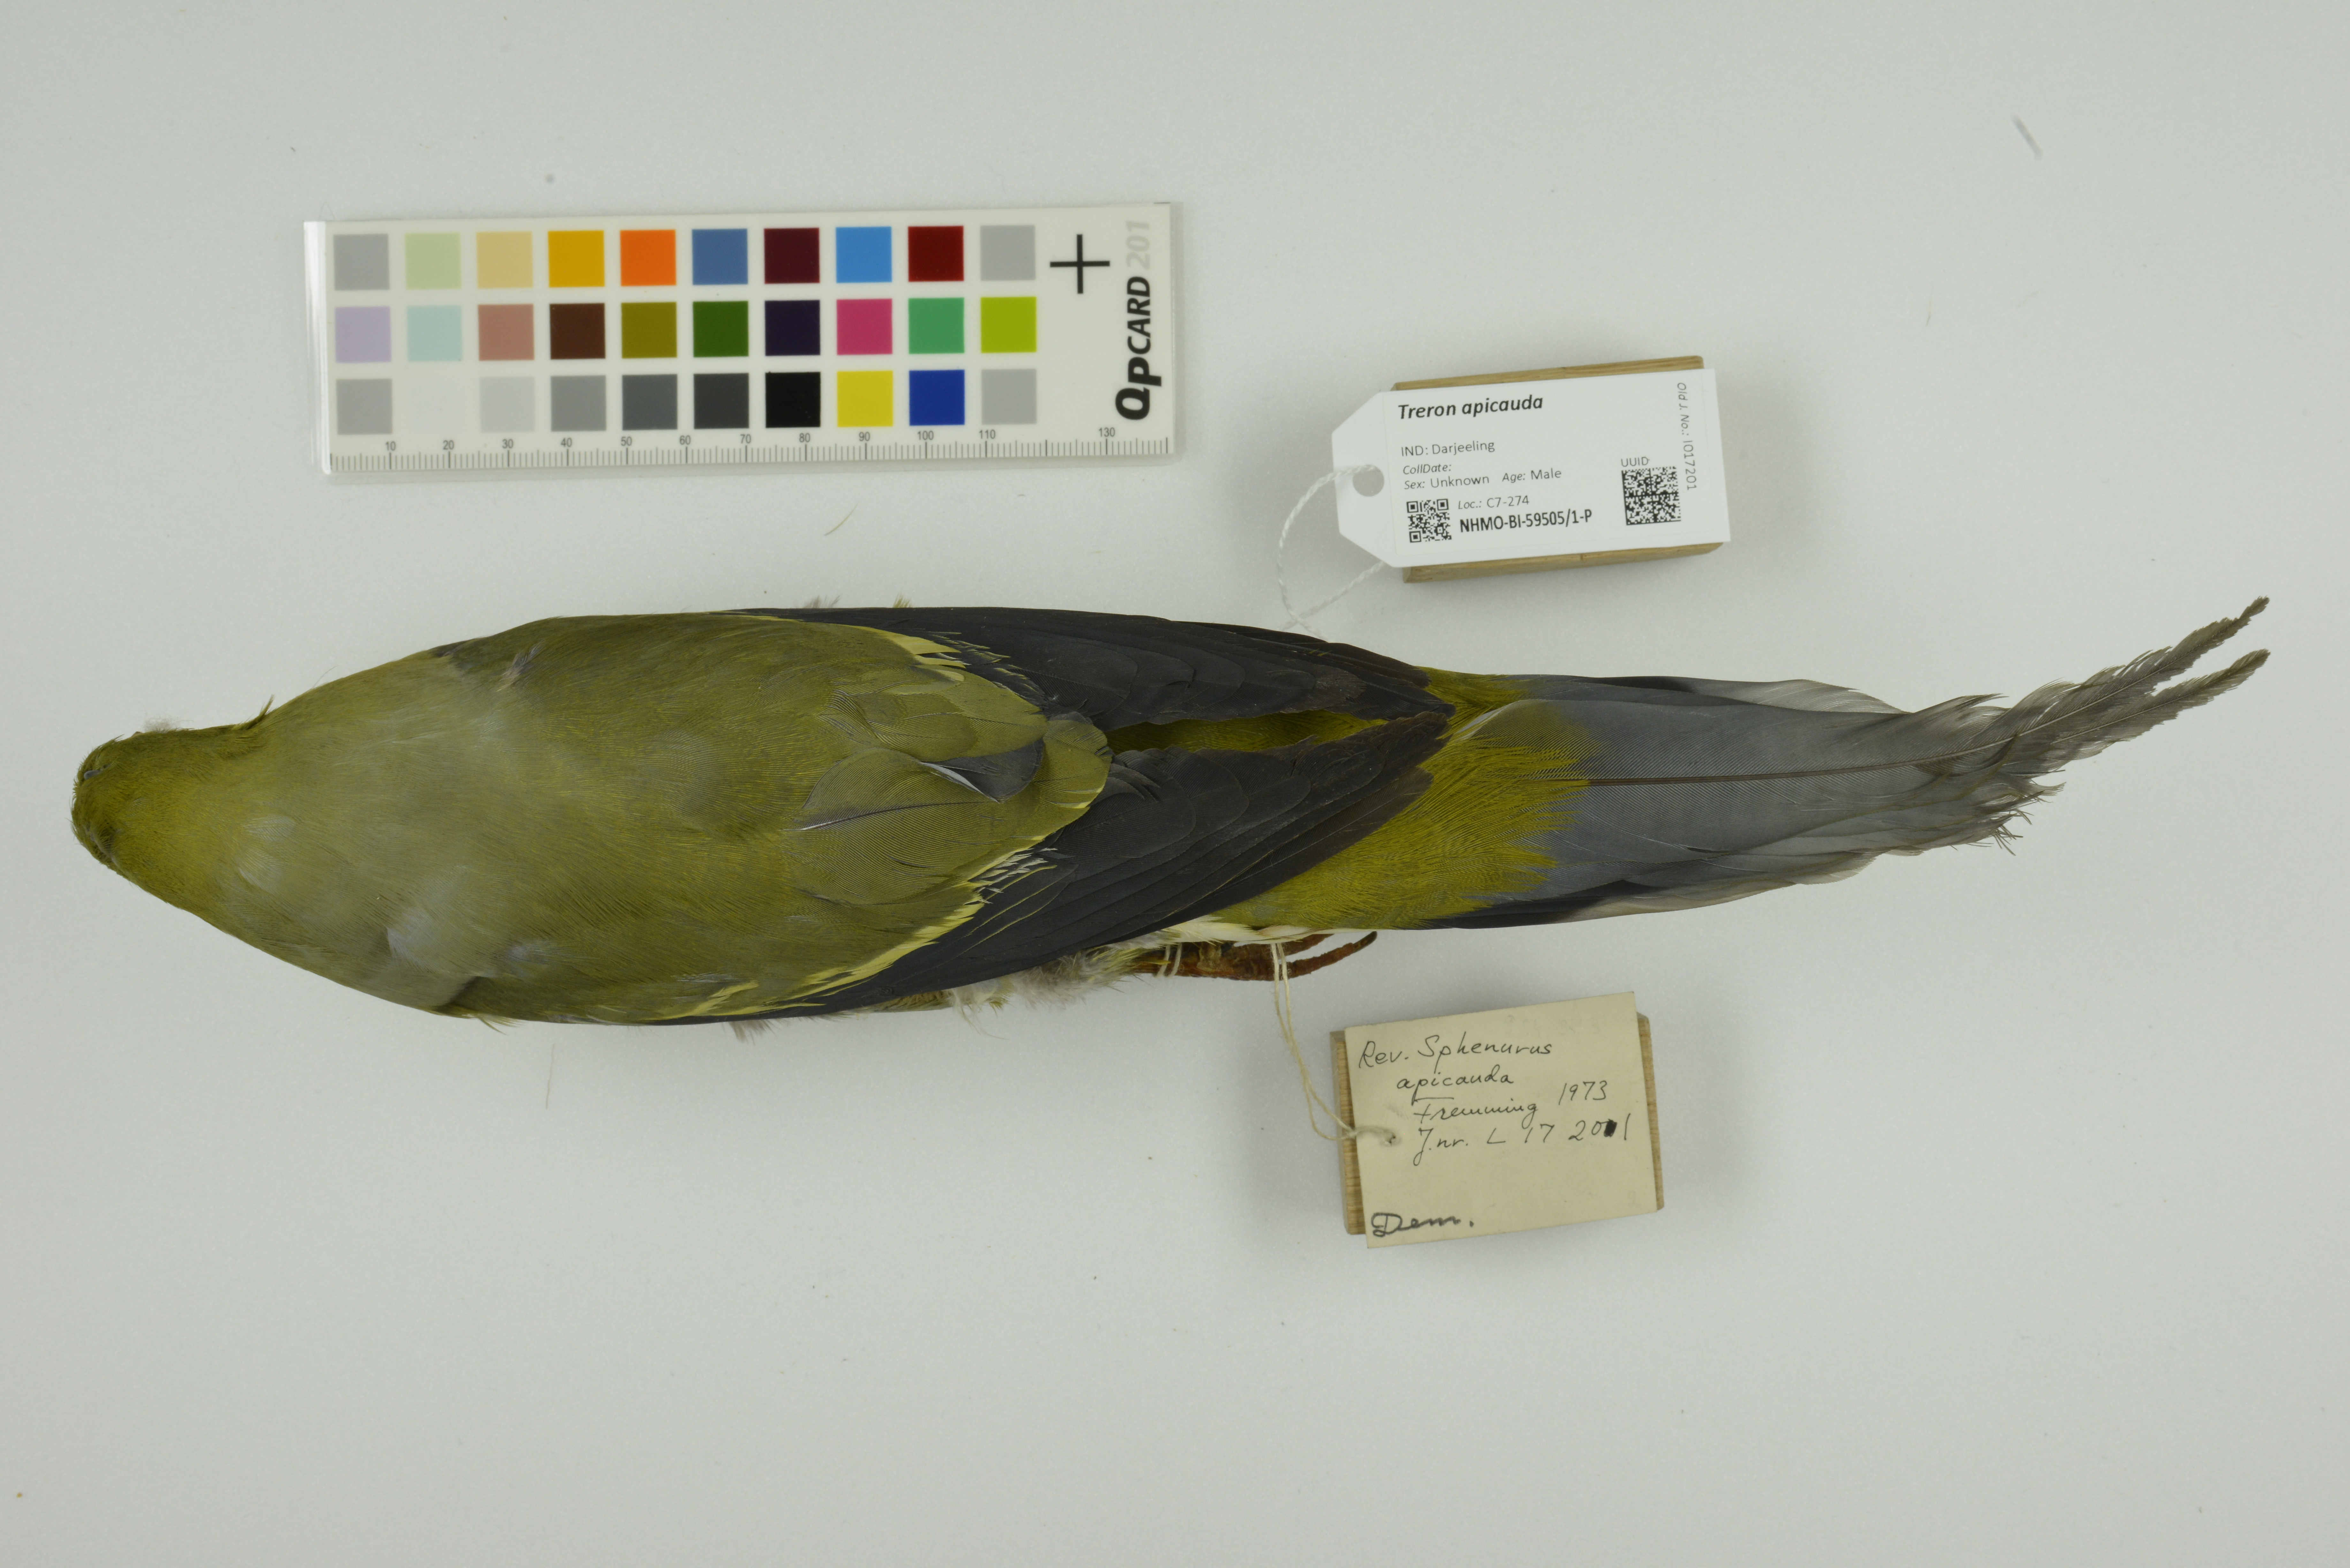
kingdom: Animalia
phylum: Chordata
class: Aves
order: Columbiformes
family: Columbidae
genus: Treron
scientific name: Treron apicauda
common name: Pin-tailed green pigeon
